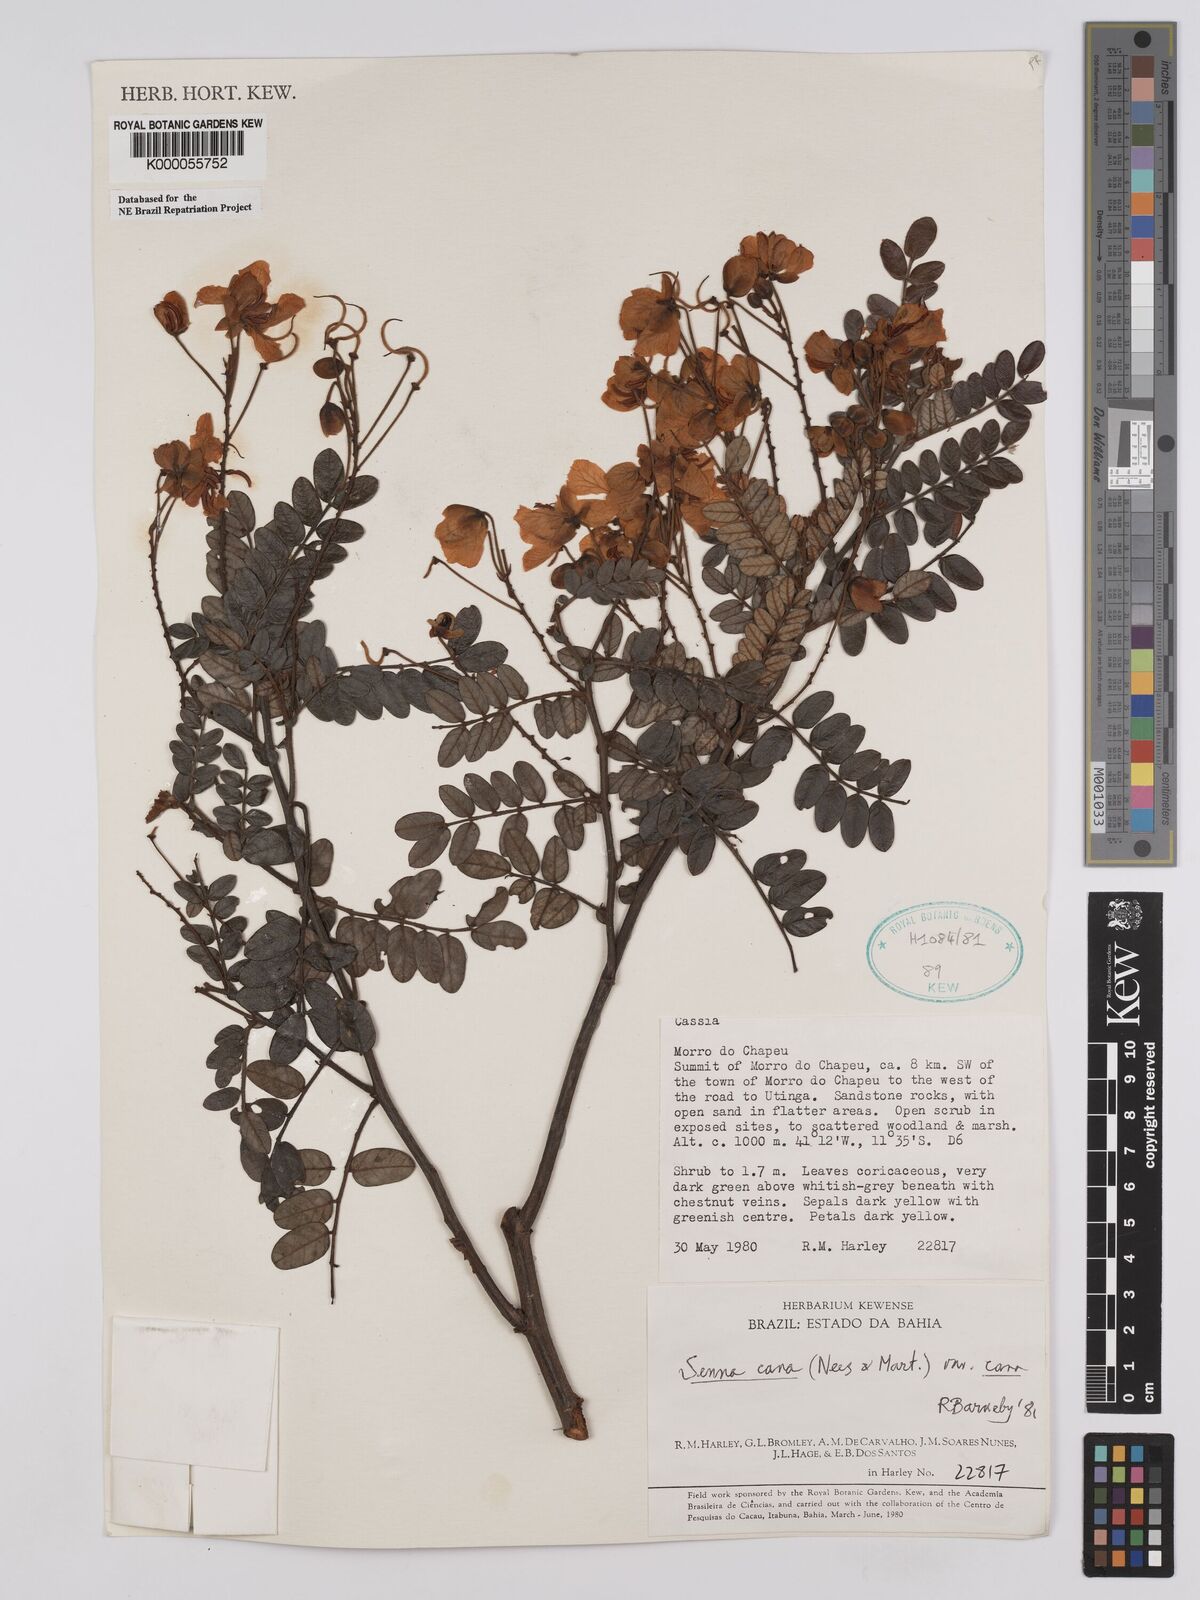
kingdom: Plantae
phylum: Tracheophyta
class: Magnoliopsida
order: Fabales
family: Fabaceae
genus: Senna
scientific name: Senna cana
